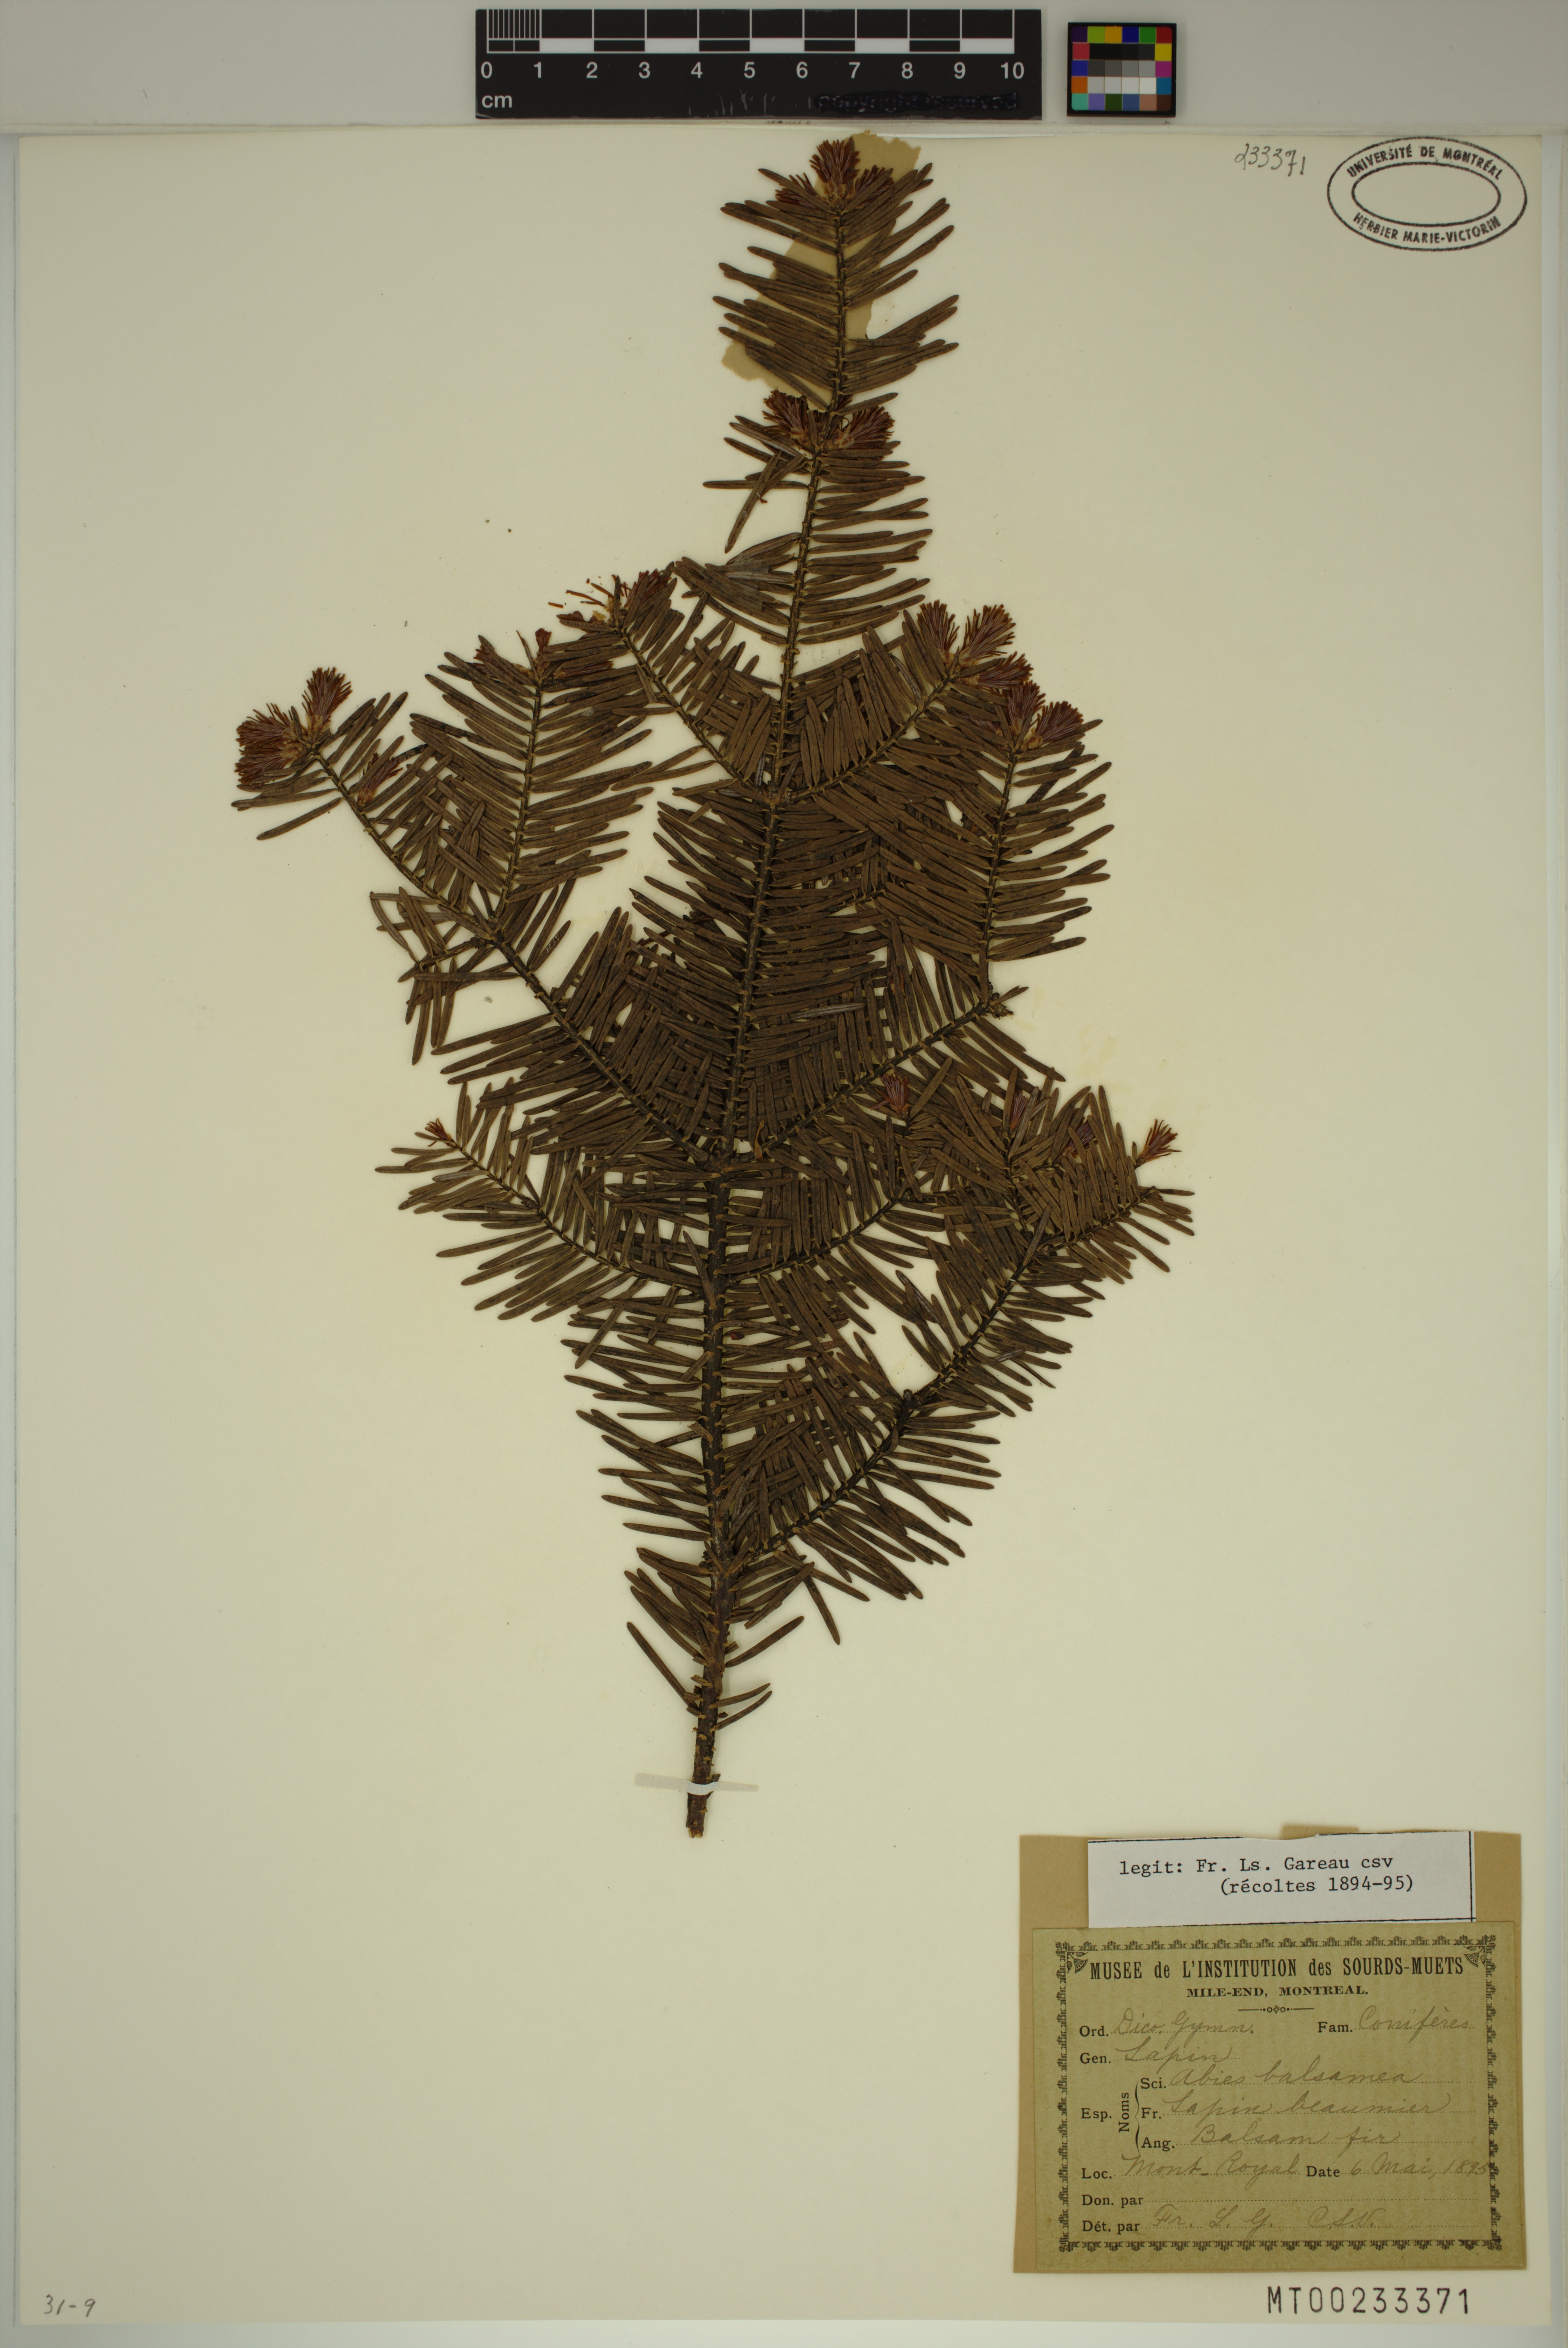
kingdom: Plantae
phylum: Tracheophyta
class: Pinopsida
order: Pinales
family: Pinaceae
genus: Abies
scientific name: Abies balsamea
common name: Balsam fir
